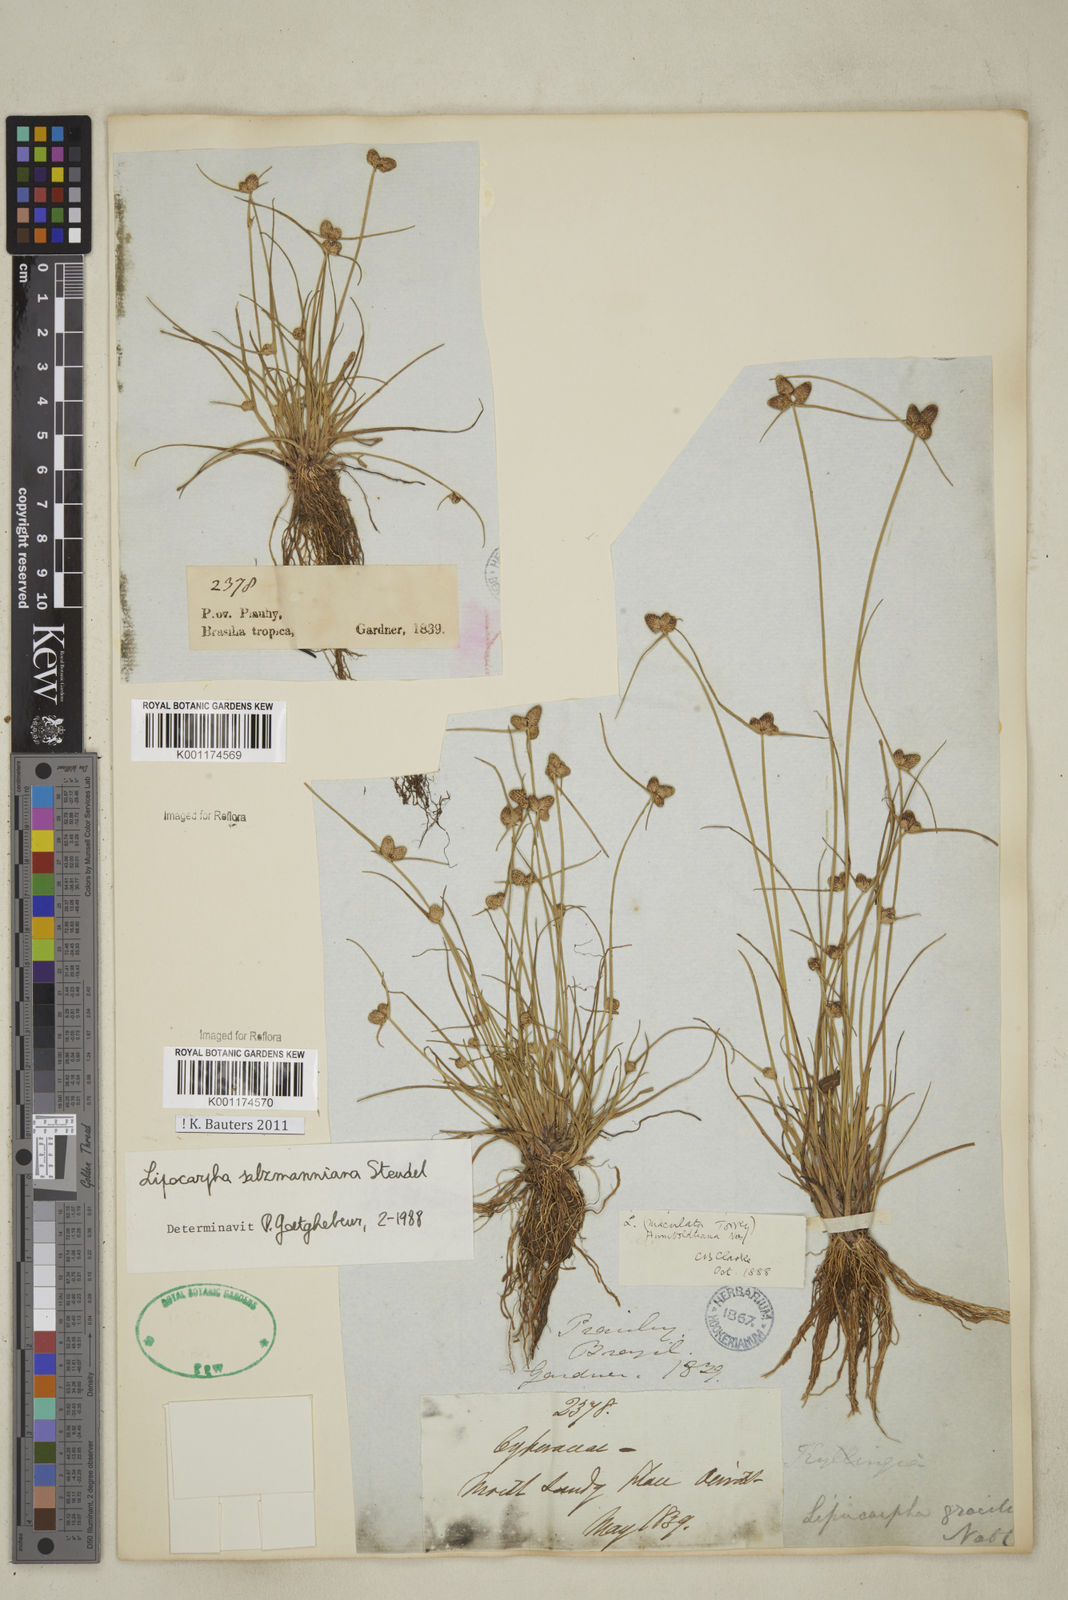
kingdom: Plantae
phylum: Tracheophyta
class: Liliopsida
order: Poales
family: Cyperaceae
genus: Cyperus
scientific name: Cyperus salzmannianus
